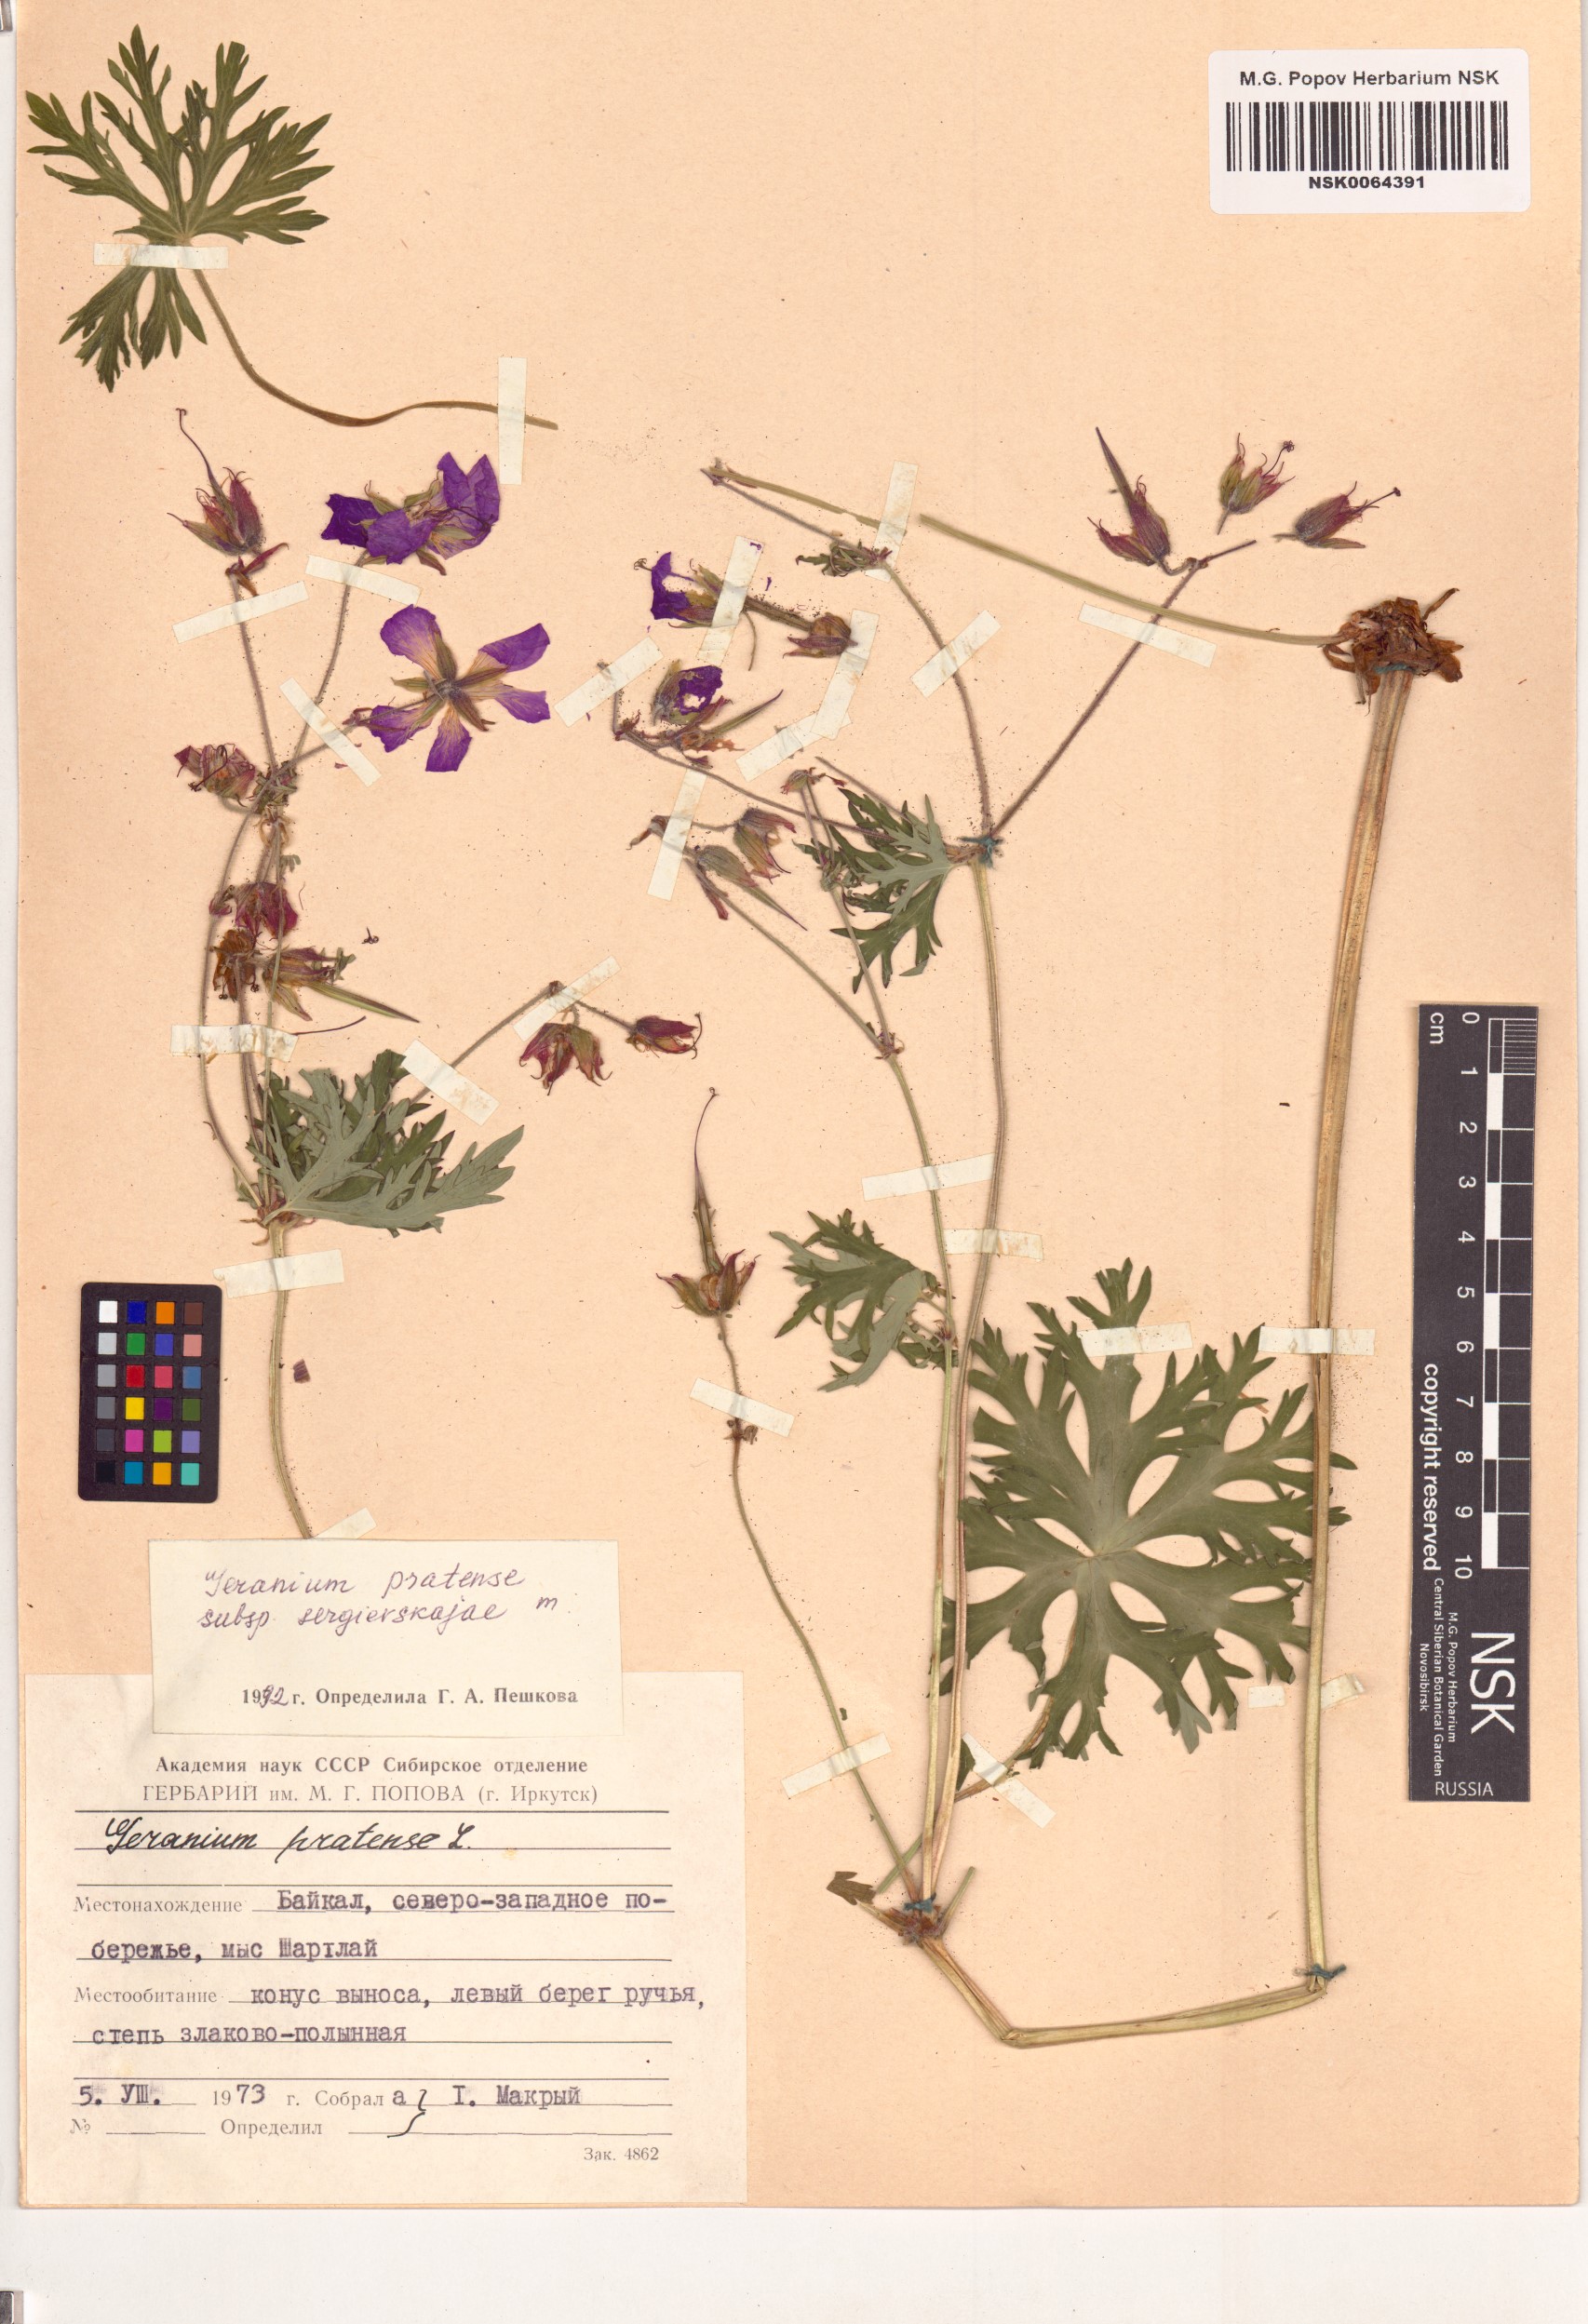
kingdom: Plantae
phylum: Tracheophyta
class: Magnoliopsida
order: Geraniales
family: Geraniaceae
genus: Geranium
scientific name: Geranium pratense
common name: Meadow crane's-bill
